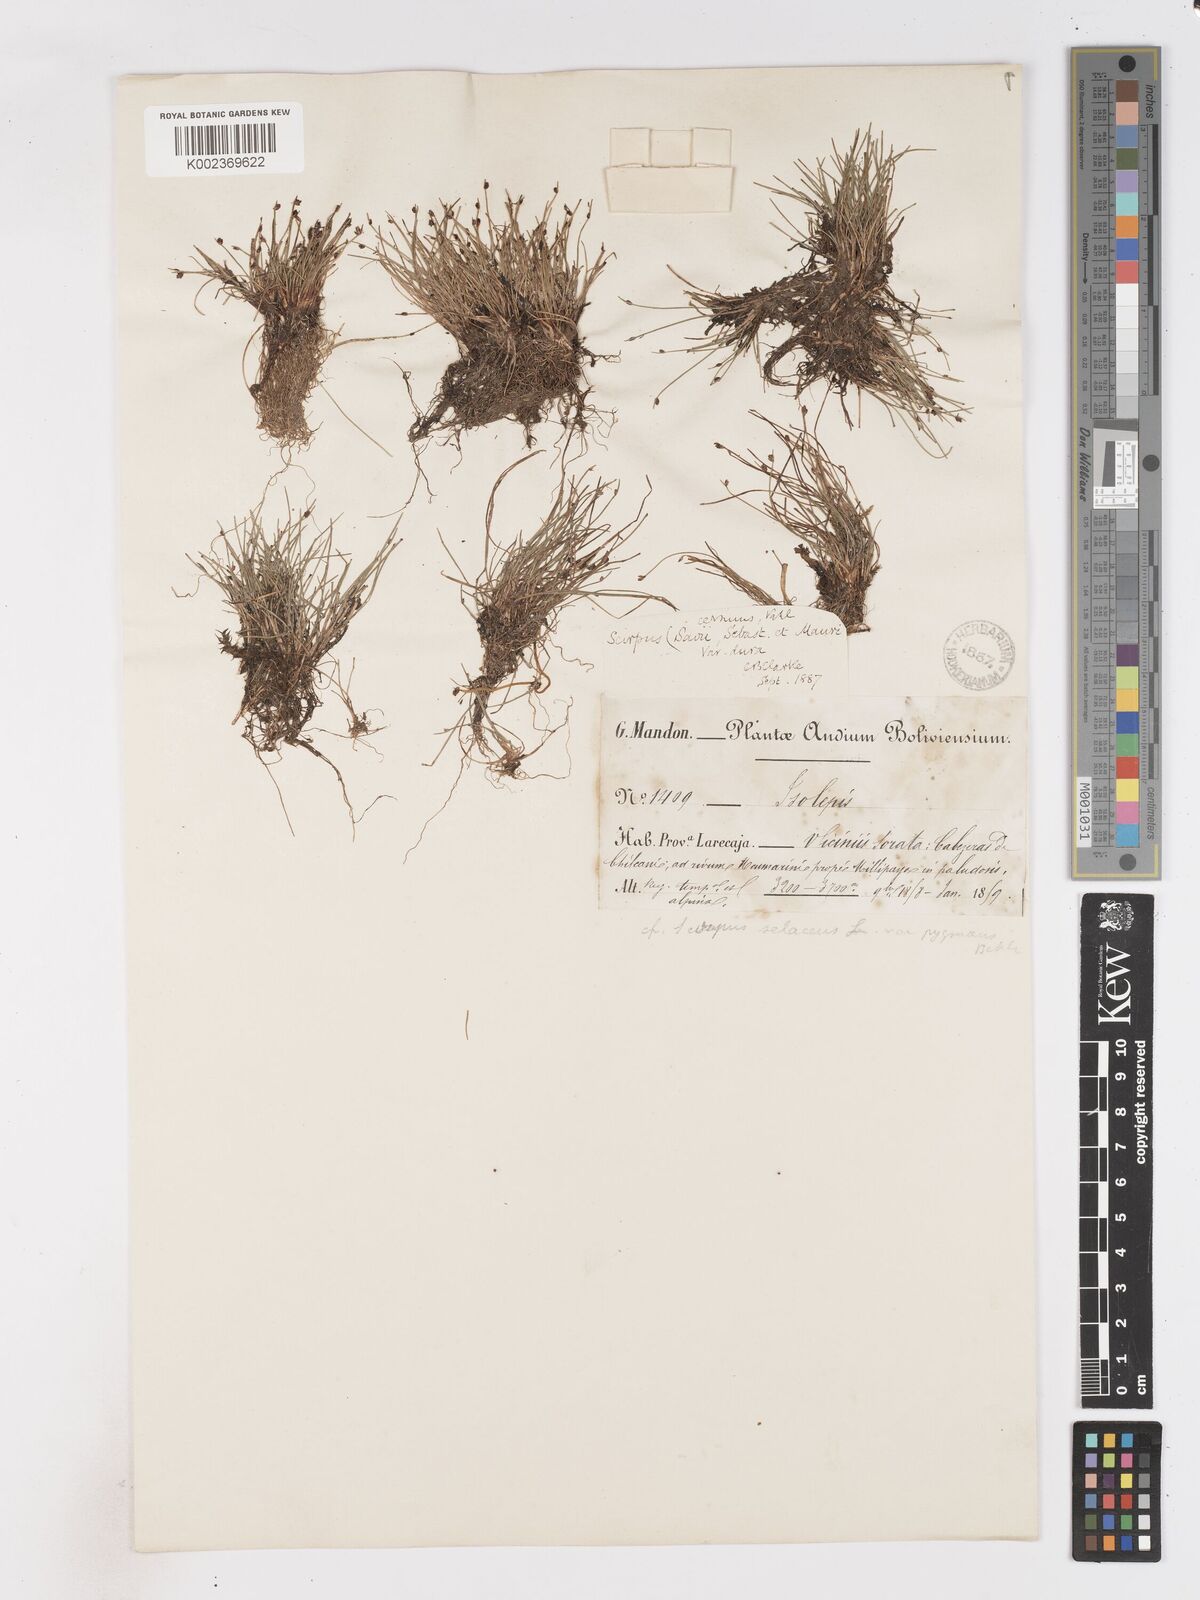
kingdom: Plantae
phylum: Tracheophyta
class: Liliopsida
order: Poales
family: Cyperaceae
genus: Isolepis
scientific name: Isolepis cernua
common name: Slender club-rush
